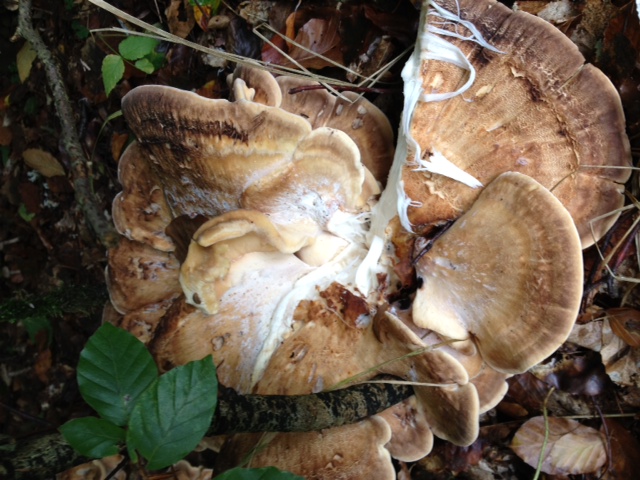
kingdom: Fungi
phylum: Basidiomycota
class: Agaricomycetes
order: Polyporales
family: Meripilaceae
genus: Meripilus
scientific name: Meripilus giganteus
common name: kæmpeporesvamp
